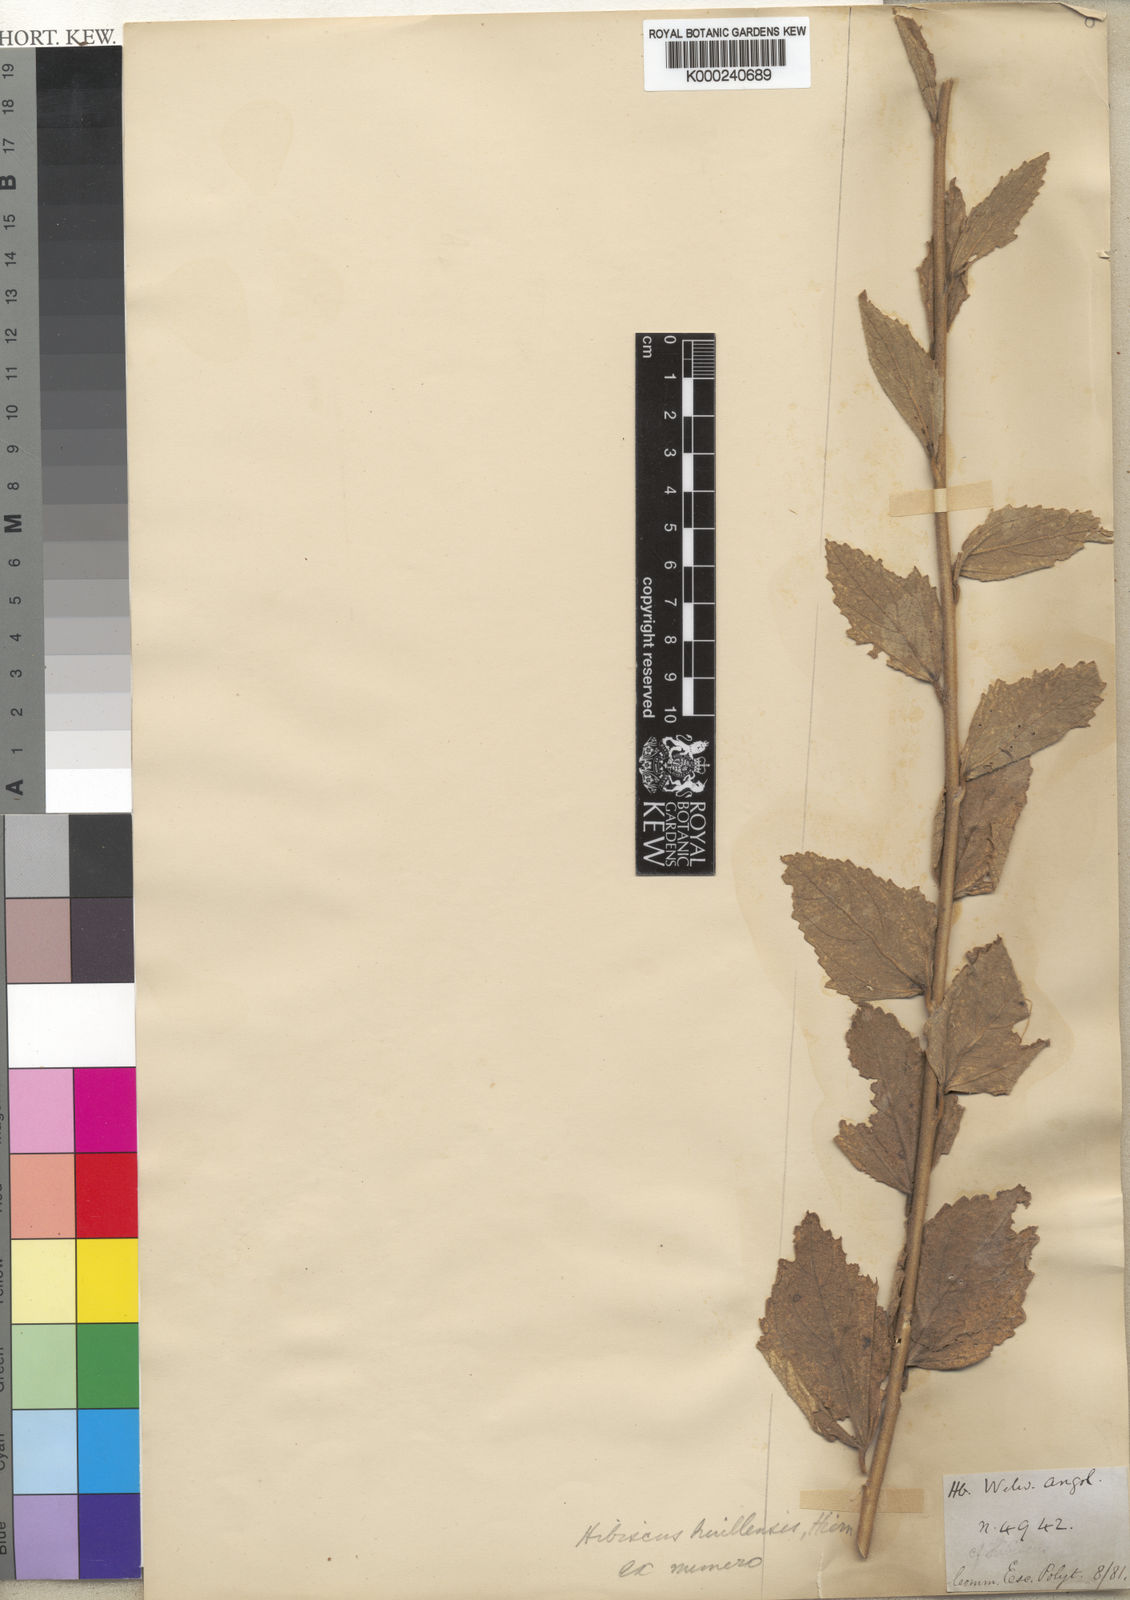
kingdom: Plantae
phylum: Tracheophyta
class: Magnoliopsida
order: Malvales
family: Malvaceae
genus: Hibiscus
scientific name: Hibiscus huillensis
